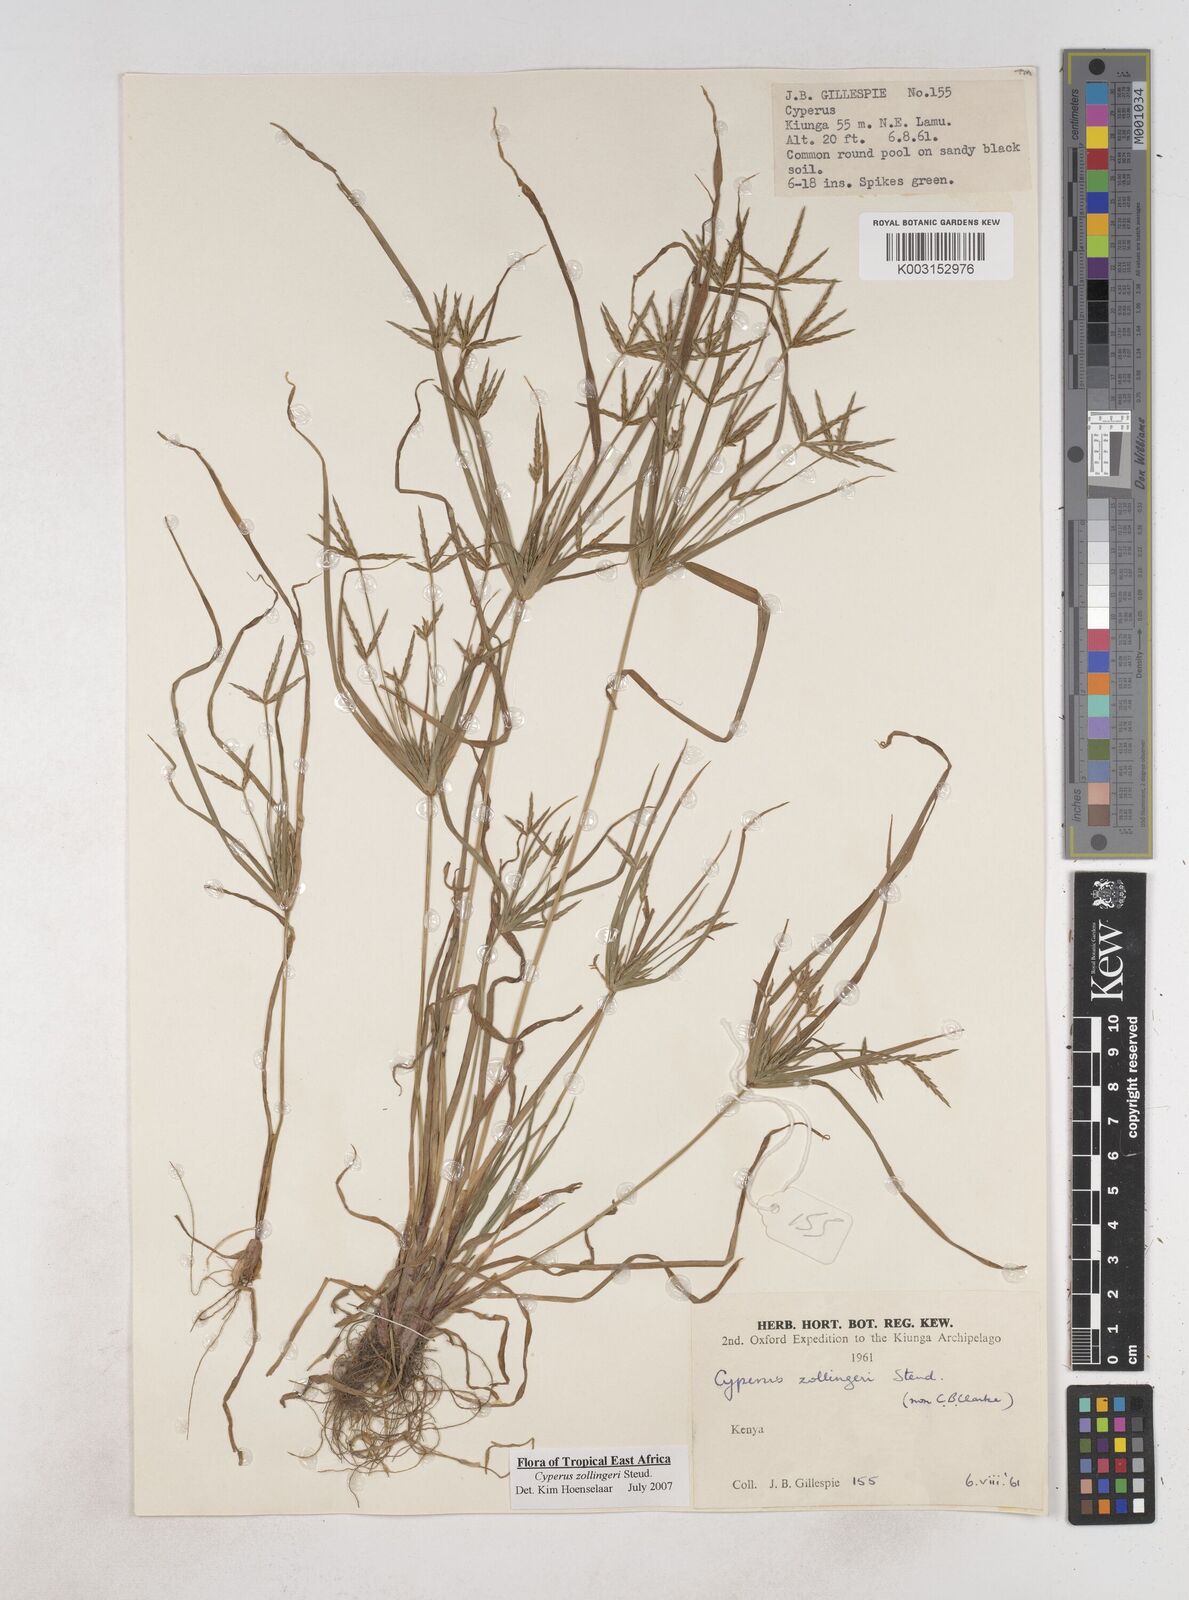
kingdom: Plantae
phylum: Tracheophyta
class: Liliopsida
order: Poales
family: Cyperaceae
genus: Cyperus
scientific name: Cyperus zollingerioides
